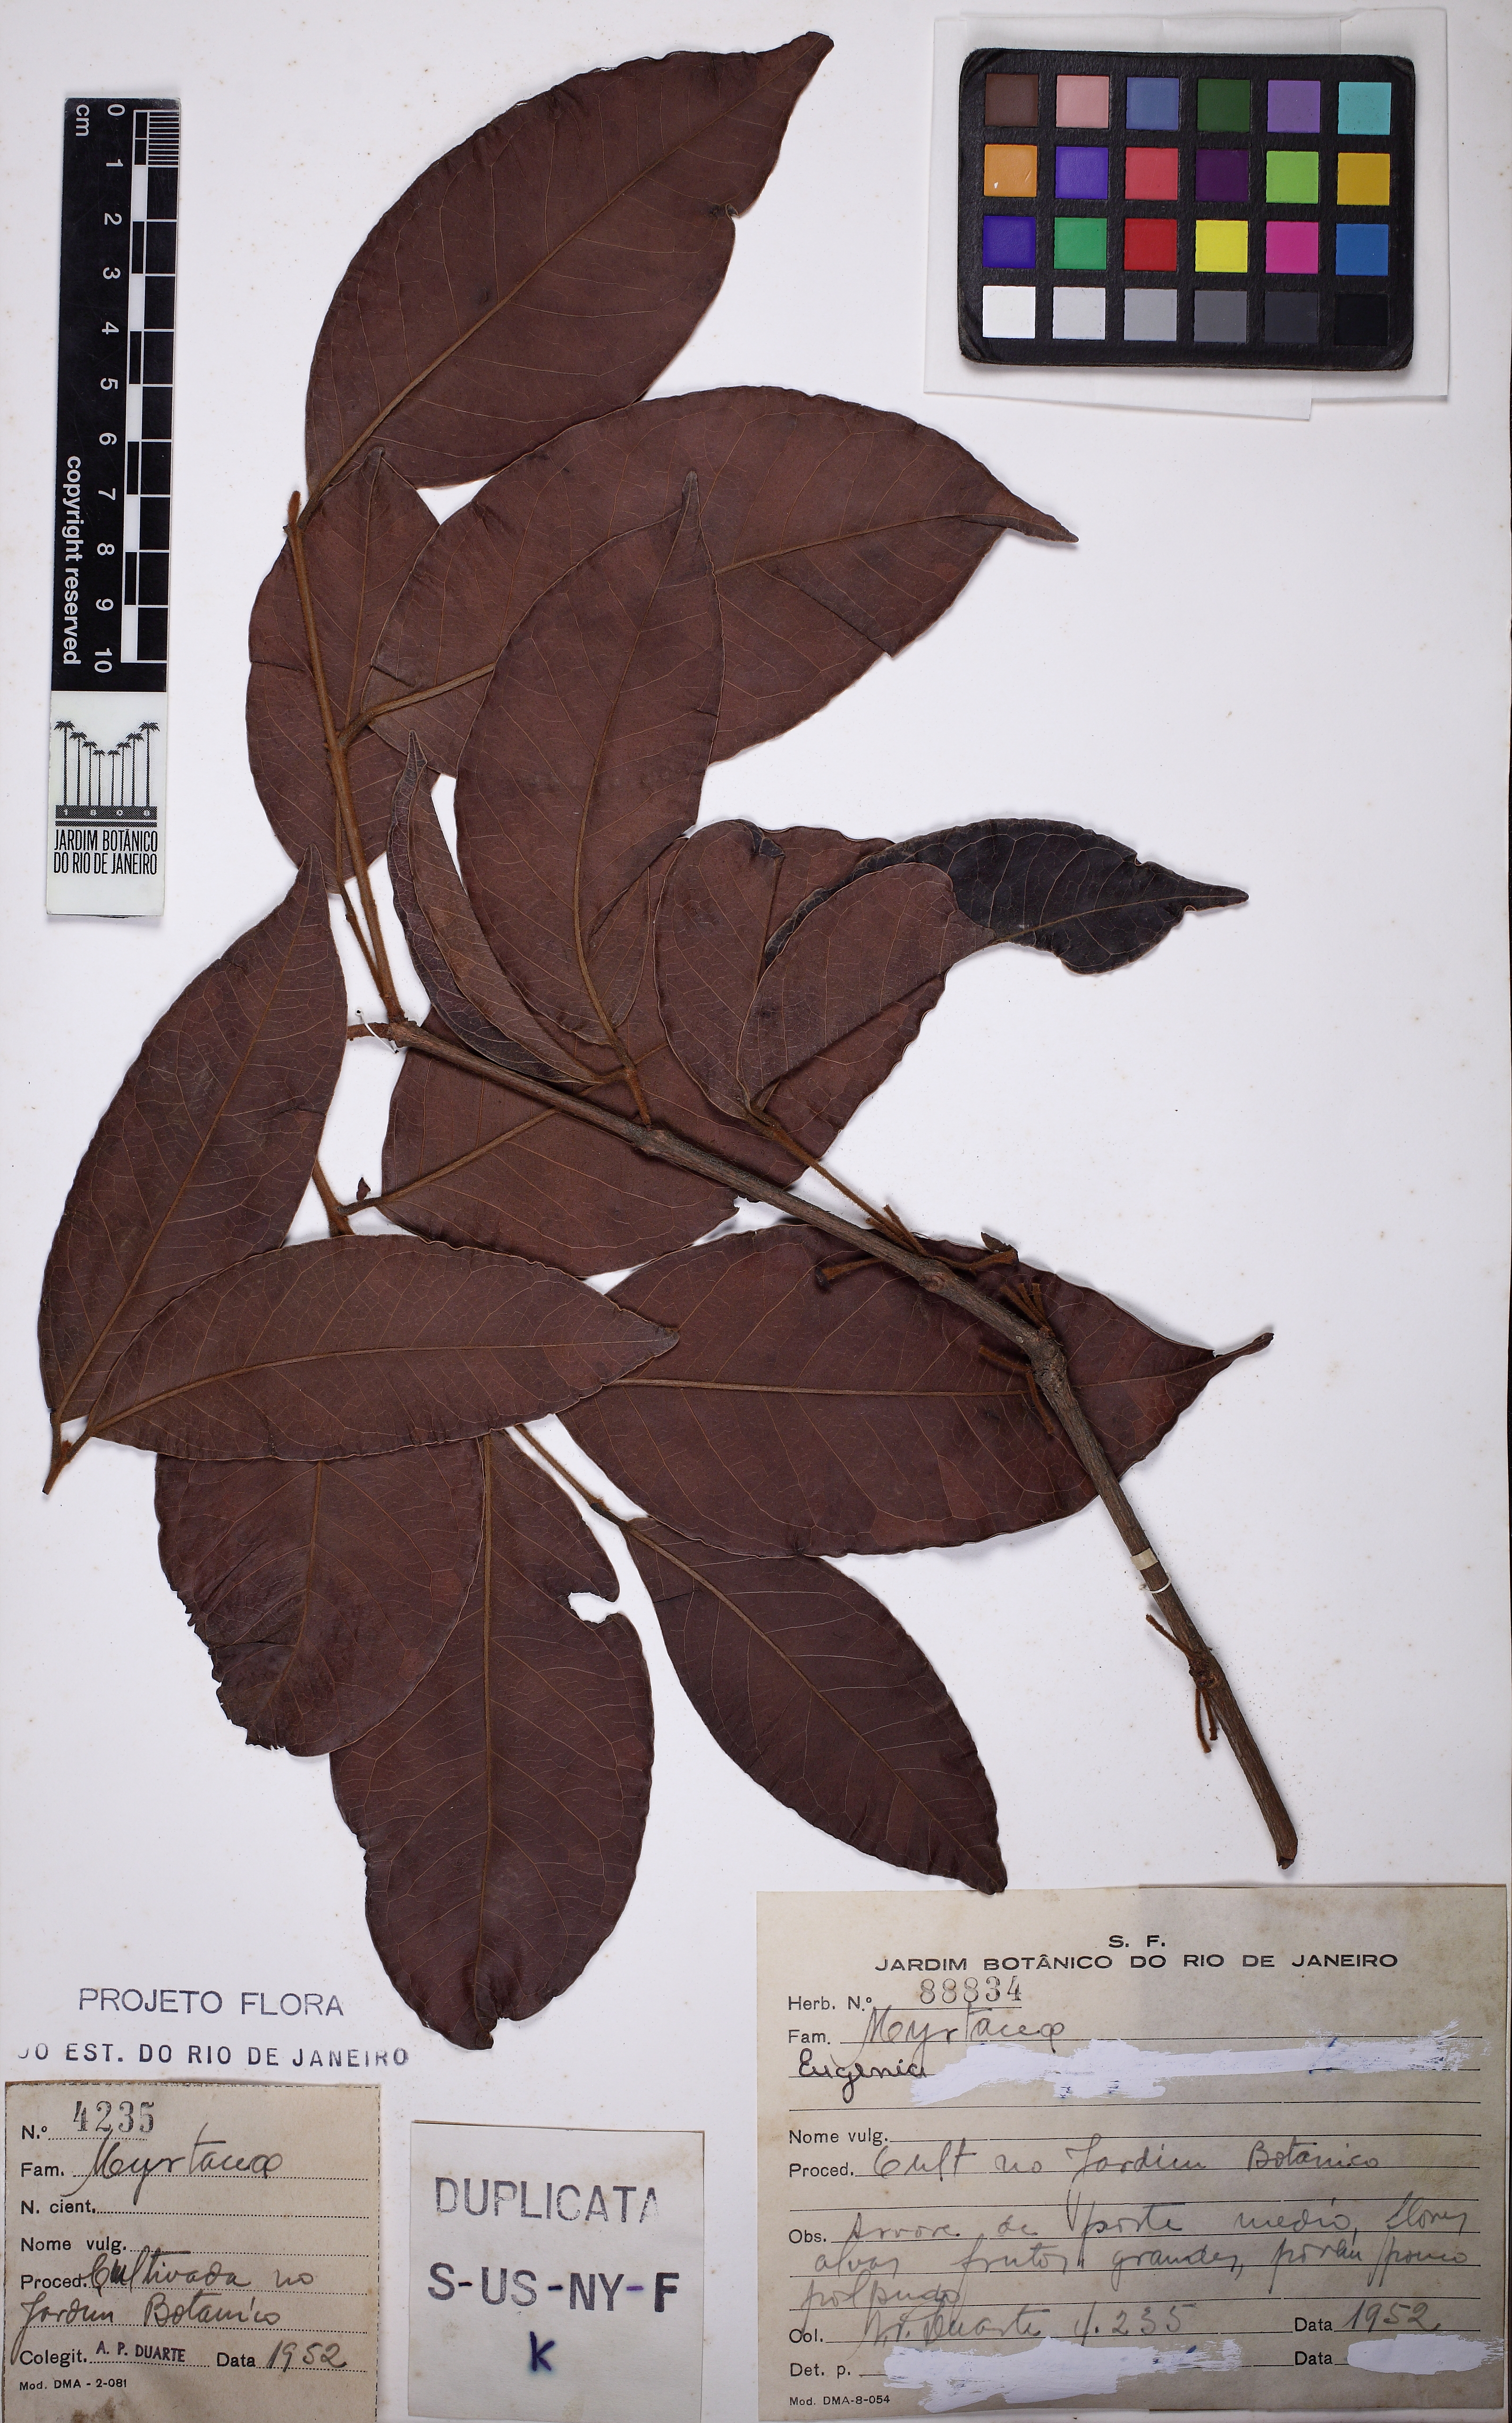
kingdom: Plantae
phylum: Tracheophyta
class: Magnoliopsida
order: Myrtales
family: Myrtaceae
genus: Eugenia
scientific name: Eugenia feijoi
